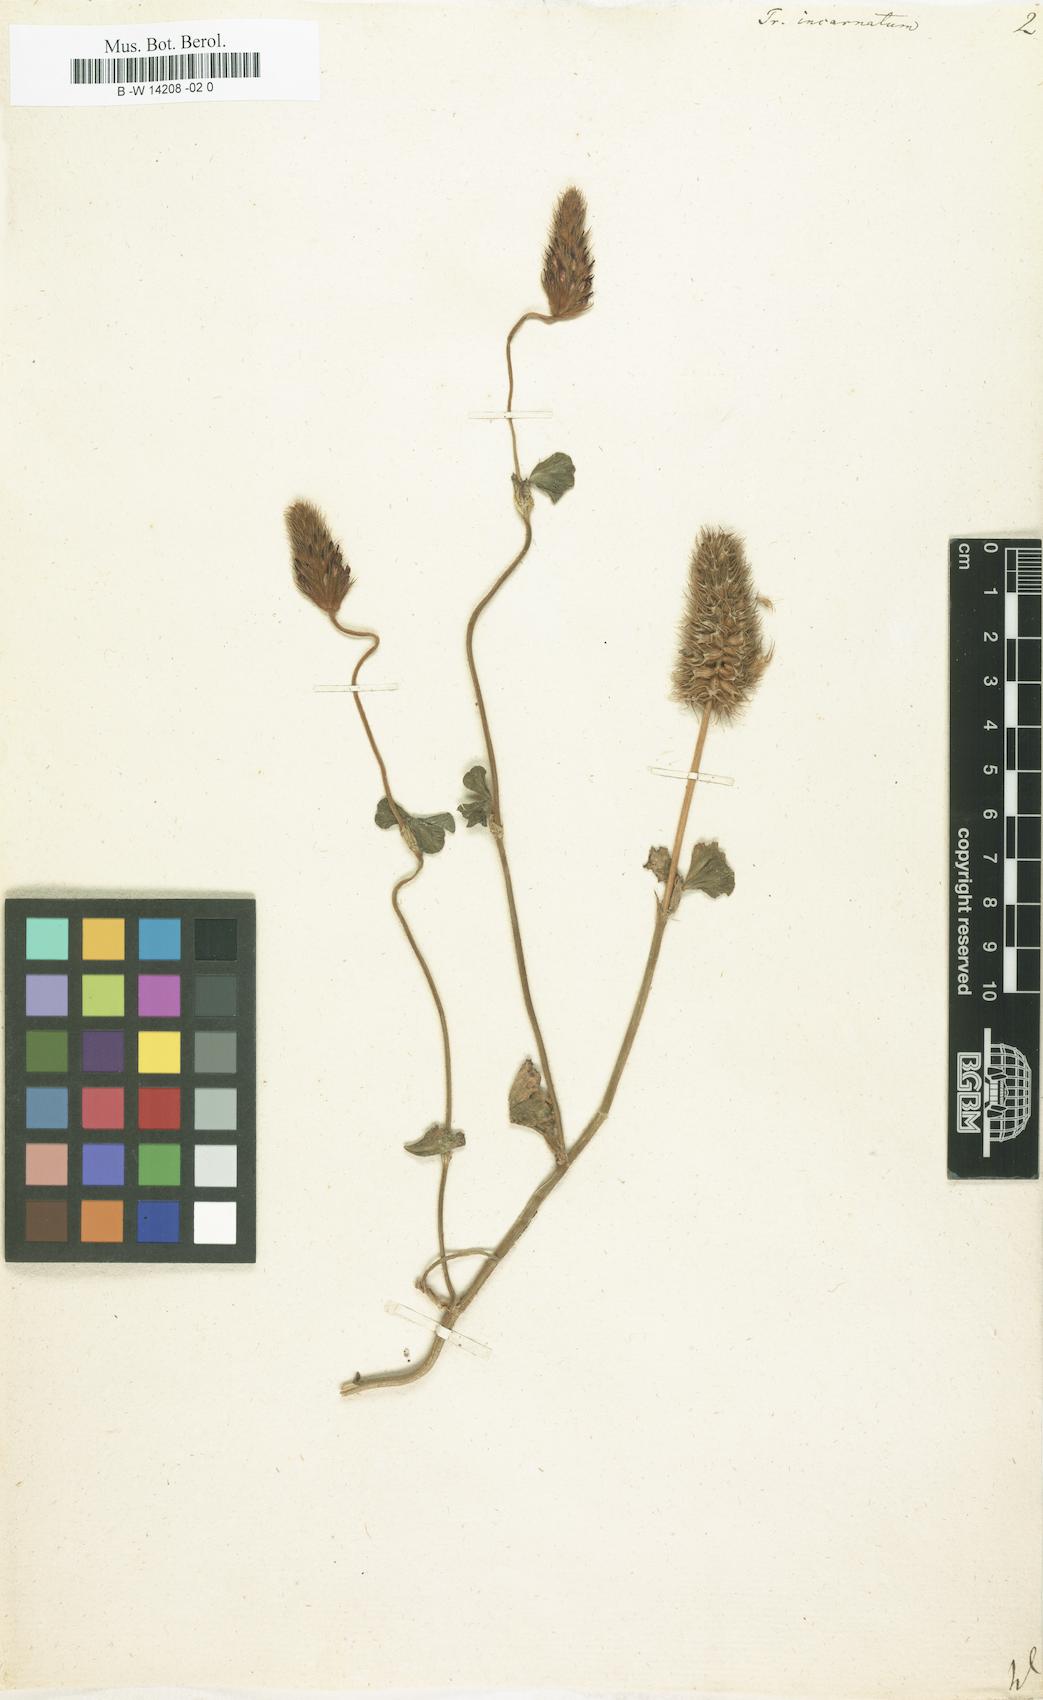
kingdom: Plantae
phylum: Tracheophyta
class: Magnoliopsida
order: Fabales
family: Fabaceae
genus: Trifolium
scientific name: Trifolium incarnatum
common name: Crimson clover
